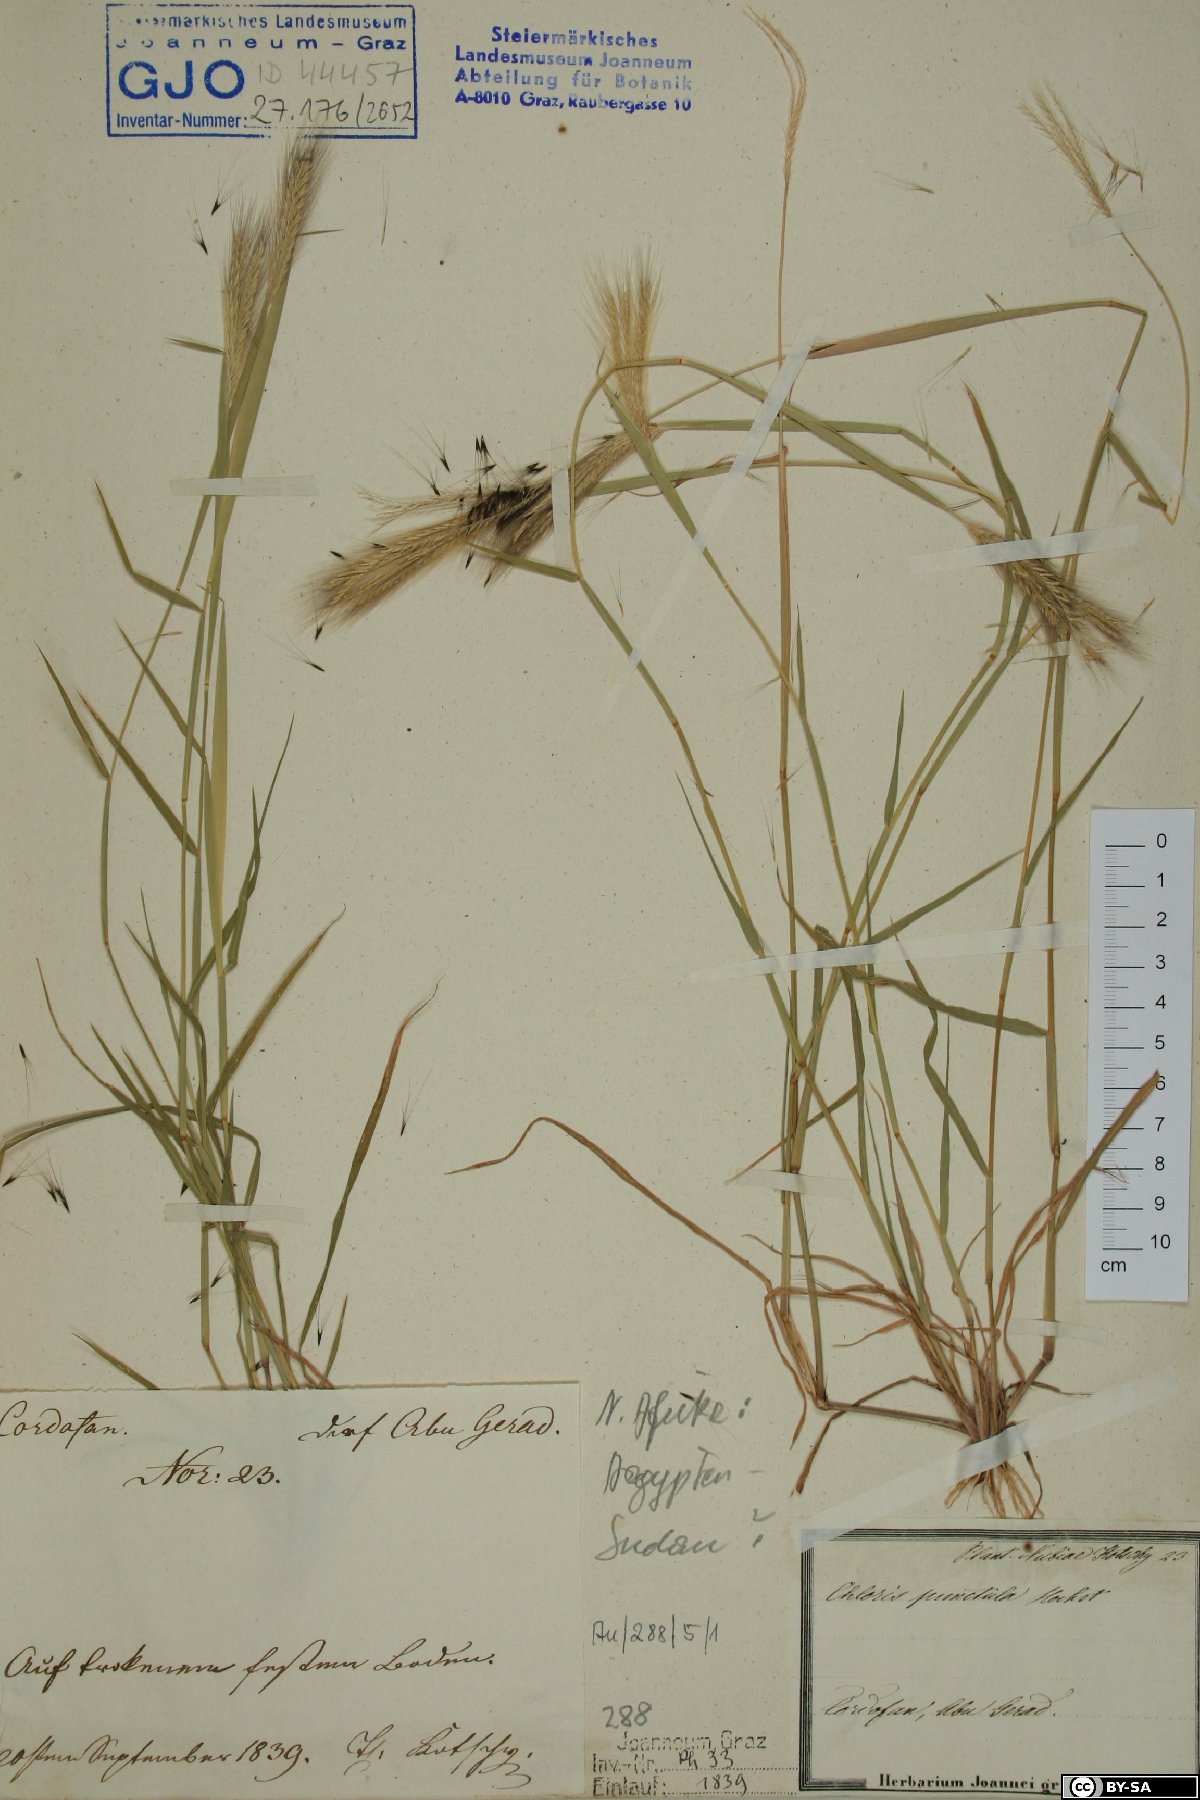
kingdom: Plantae
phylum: Tracheophyta
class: Liliopsida
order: Poales
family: Poaceae
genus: Enteropogon
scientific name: Enteropogon prieurii
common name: Prieur's umbrellagrass
